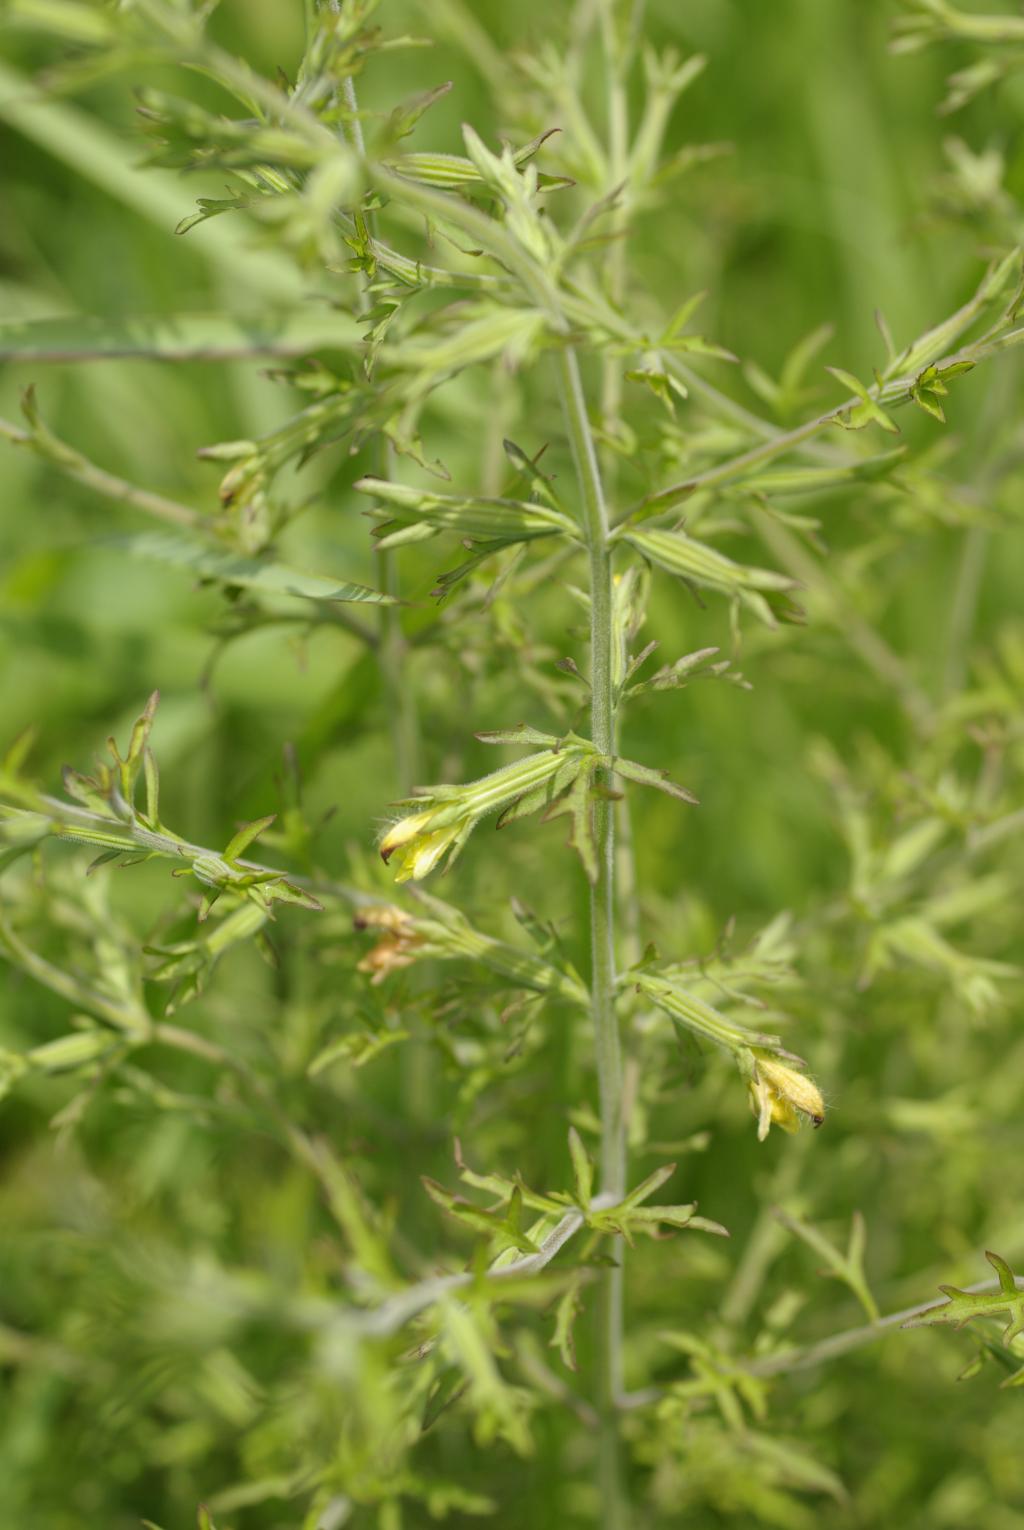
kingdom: Plantae
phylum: Tracheophyta
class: Magnoliopsida
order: Lamiales
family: Orobanchaceae
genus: Siphonostegia
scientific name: Siphonostegia chinensis
